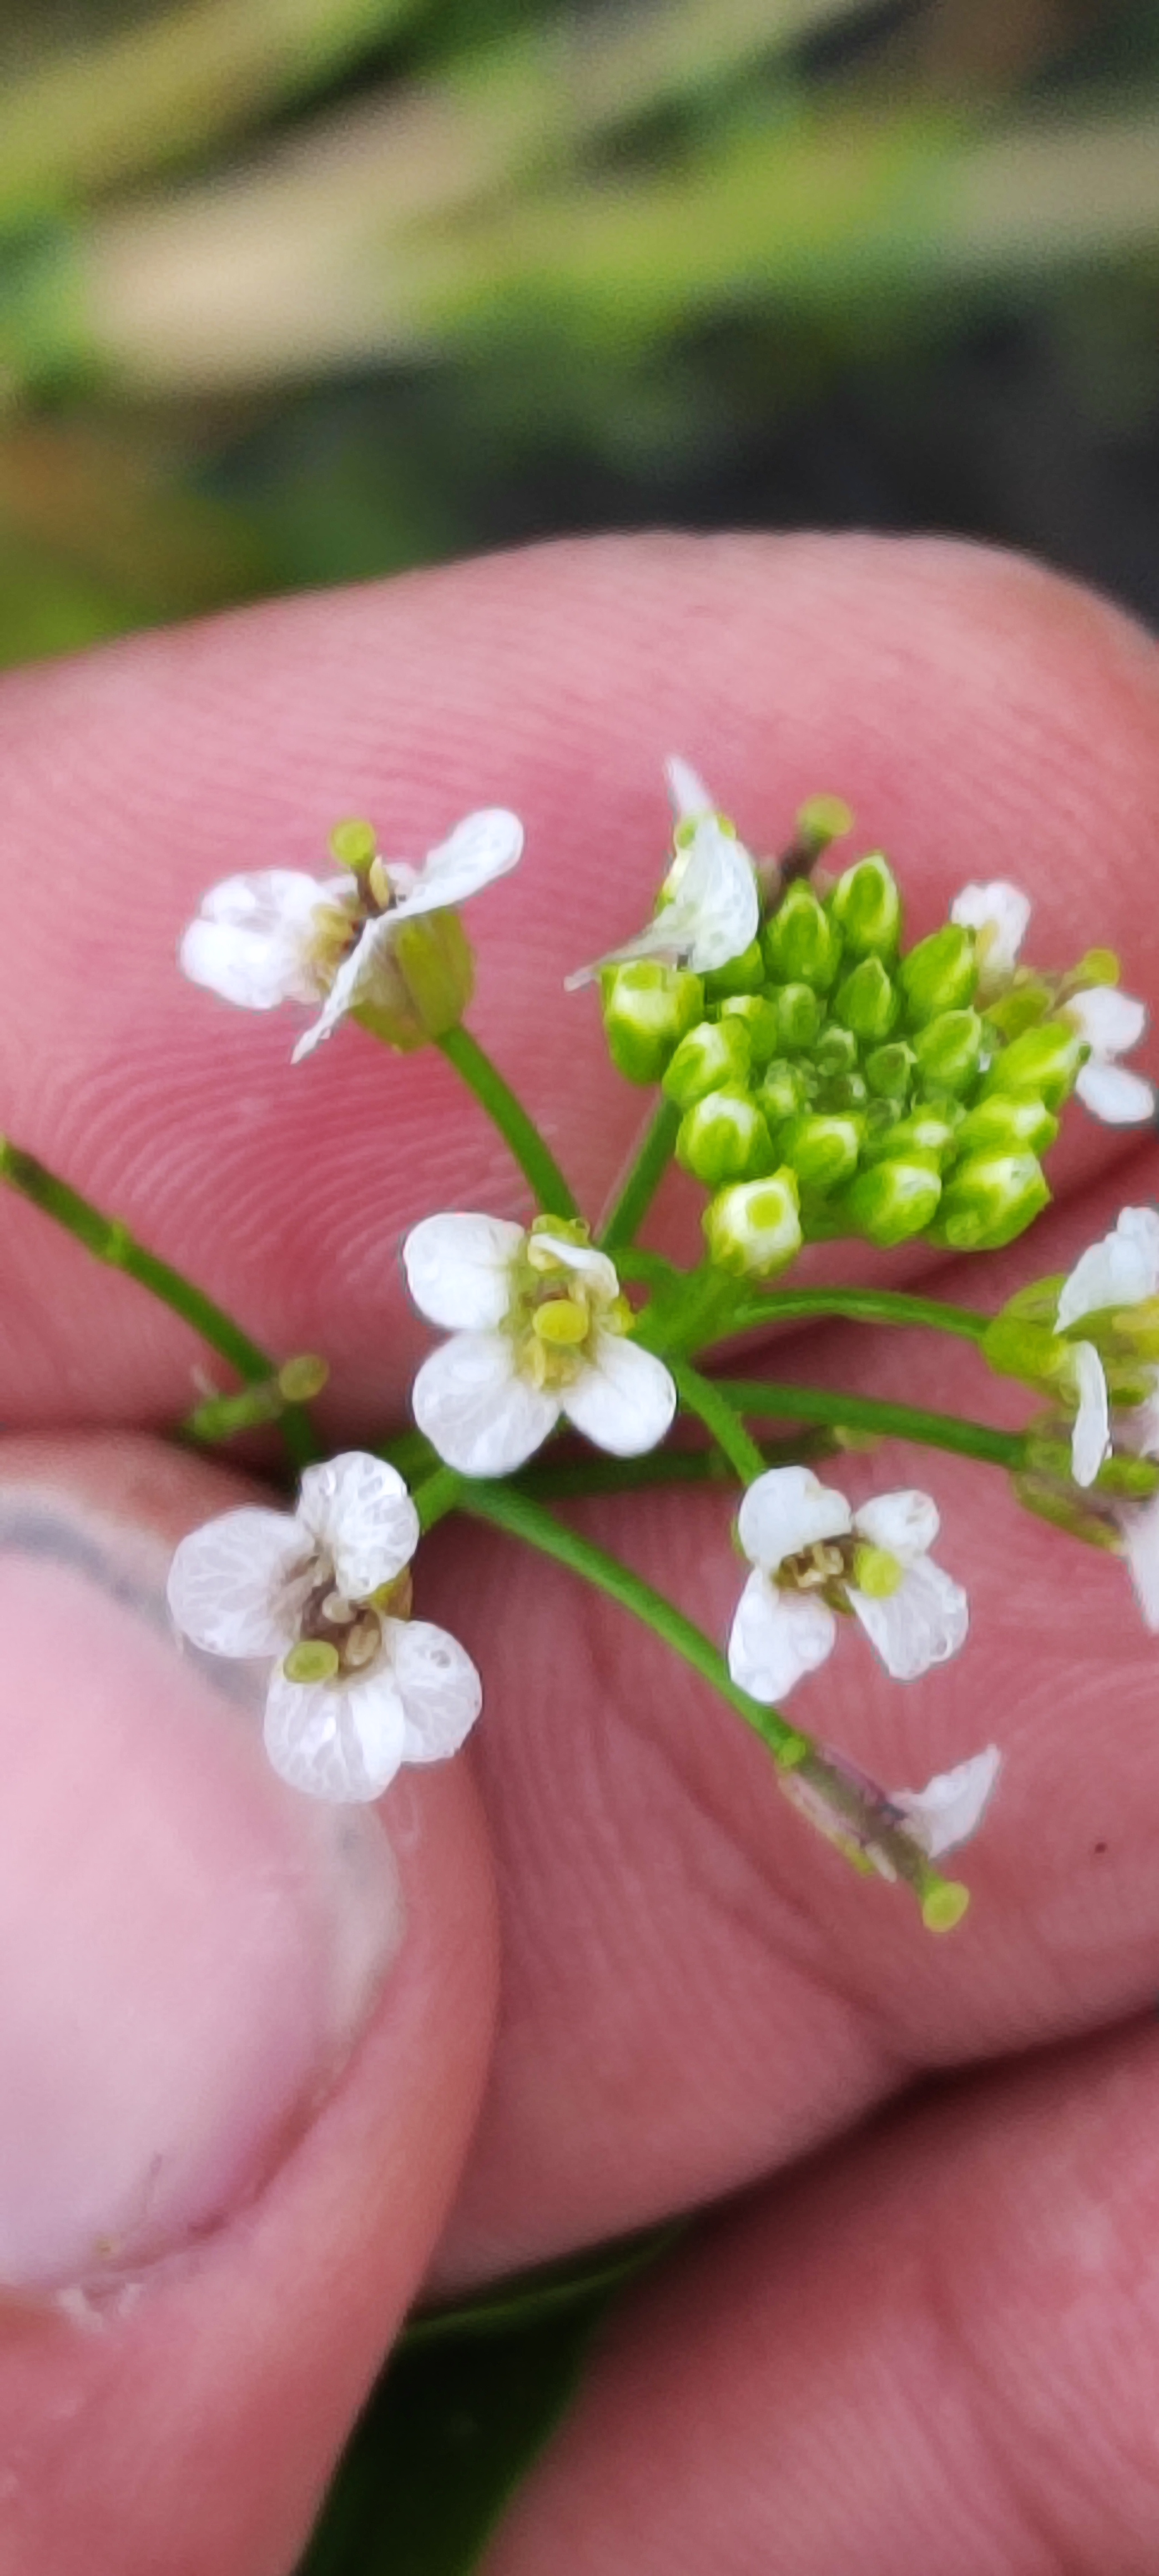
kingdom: Plantae
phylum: Tracheophyta
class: Magnoliopsida
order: Brassicales
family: Brassicaceae
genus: Nasturtium
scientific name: Nasturtium
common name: Brøndkarseslægten
